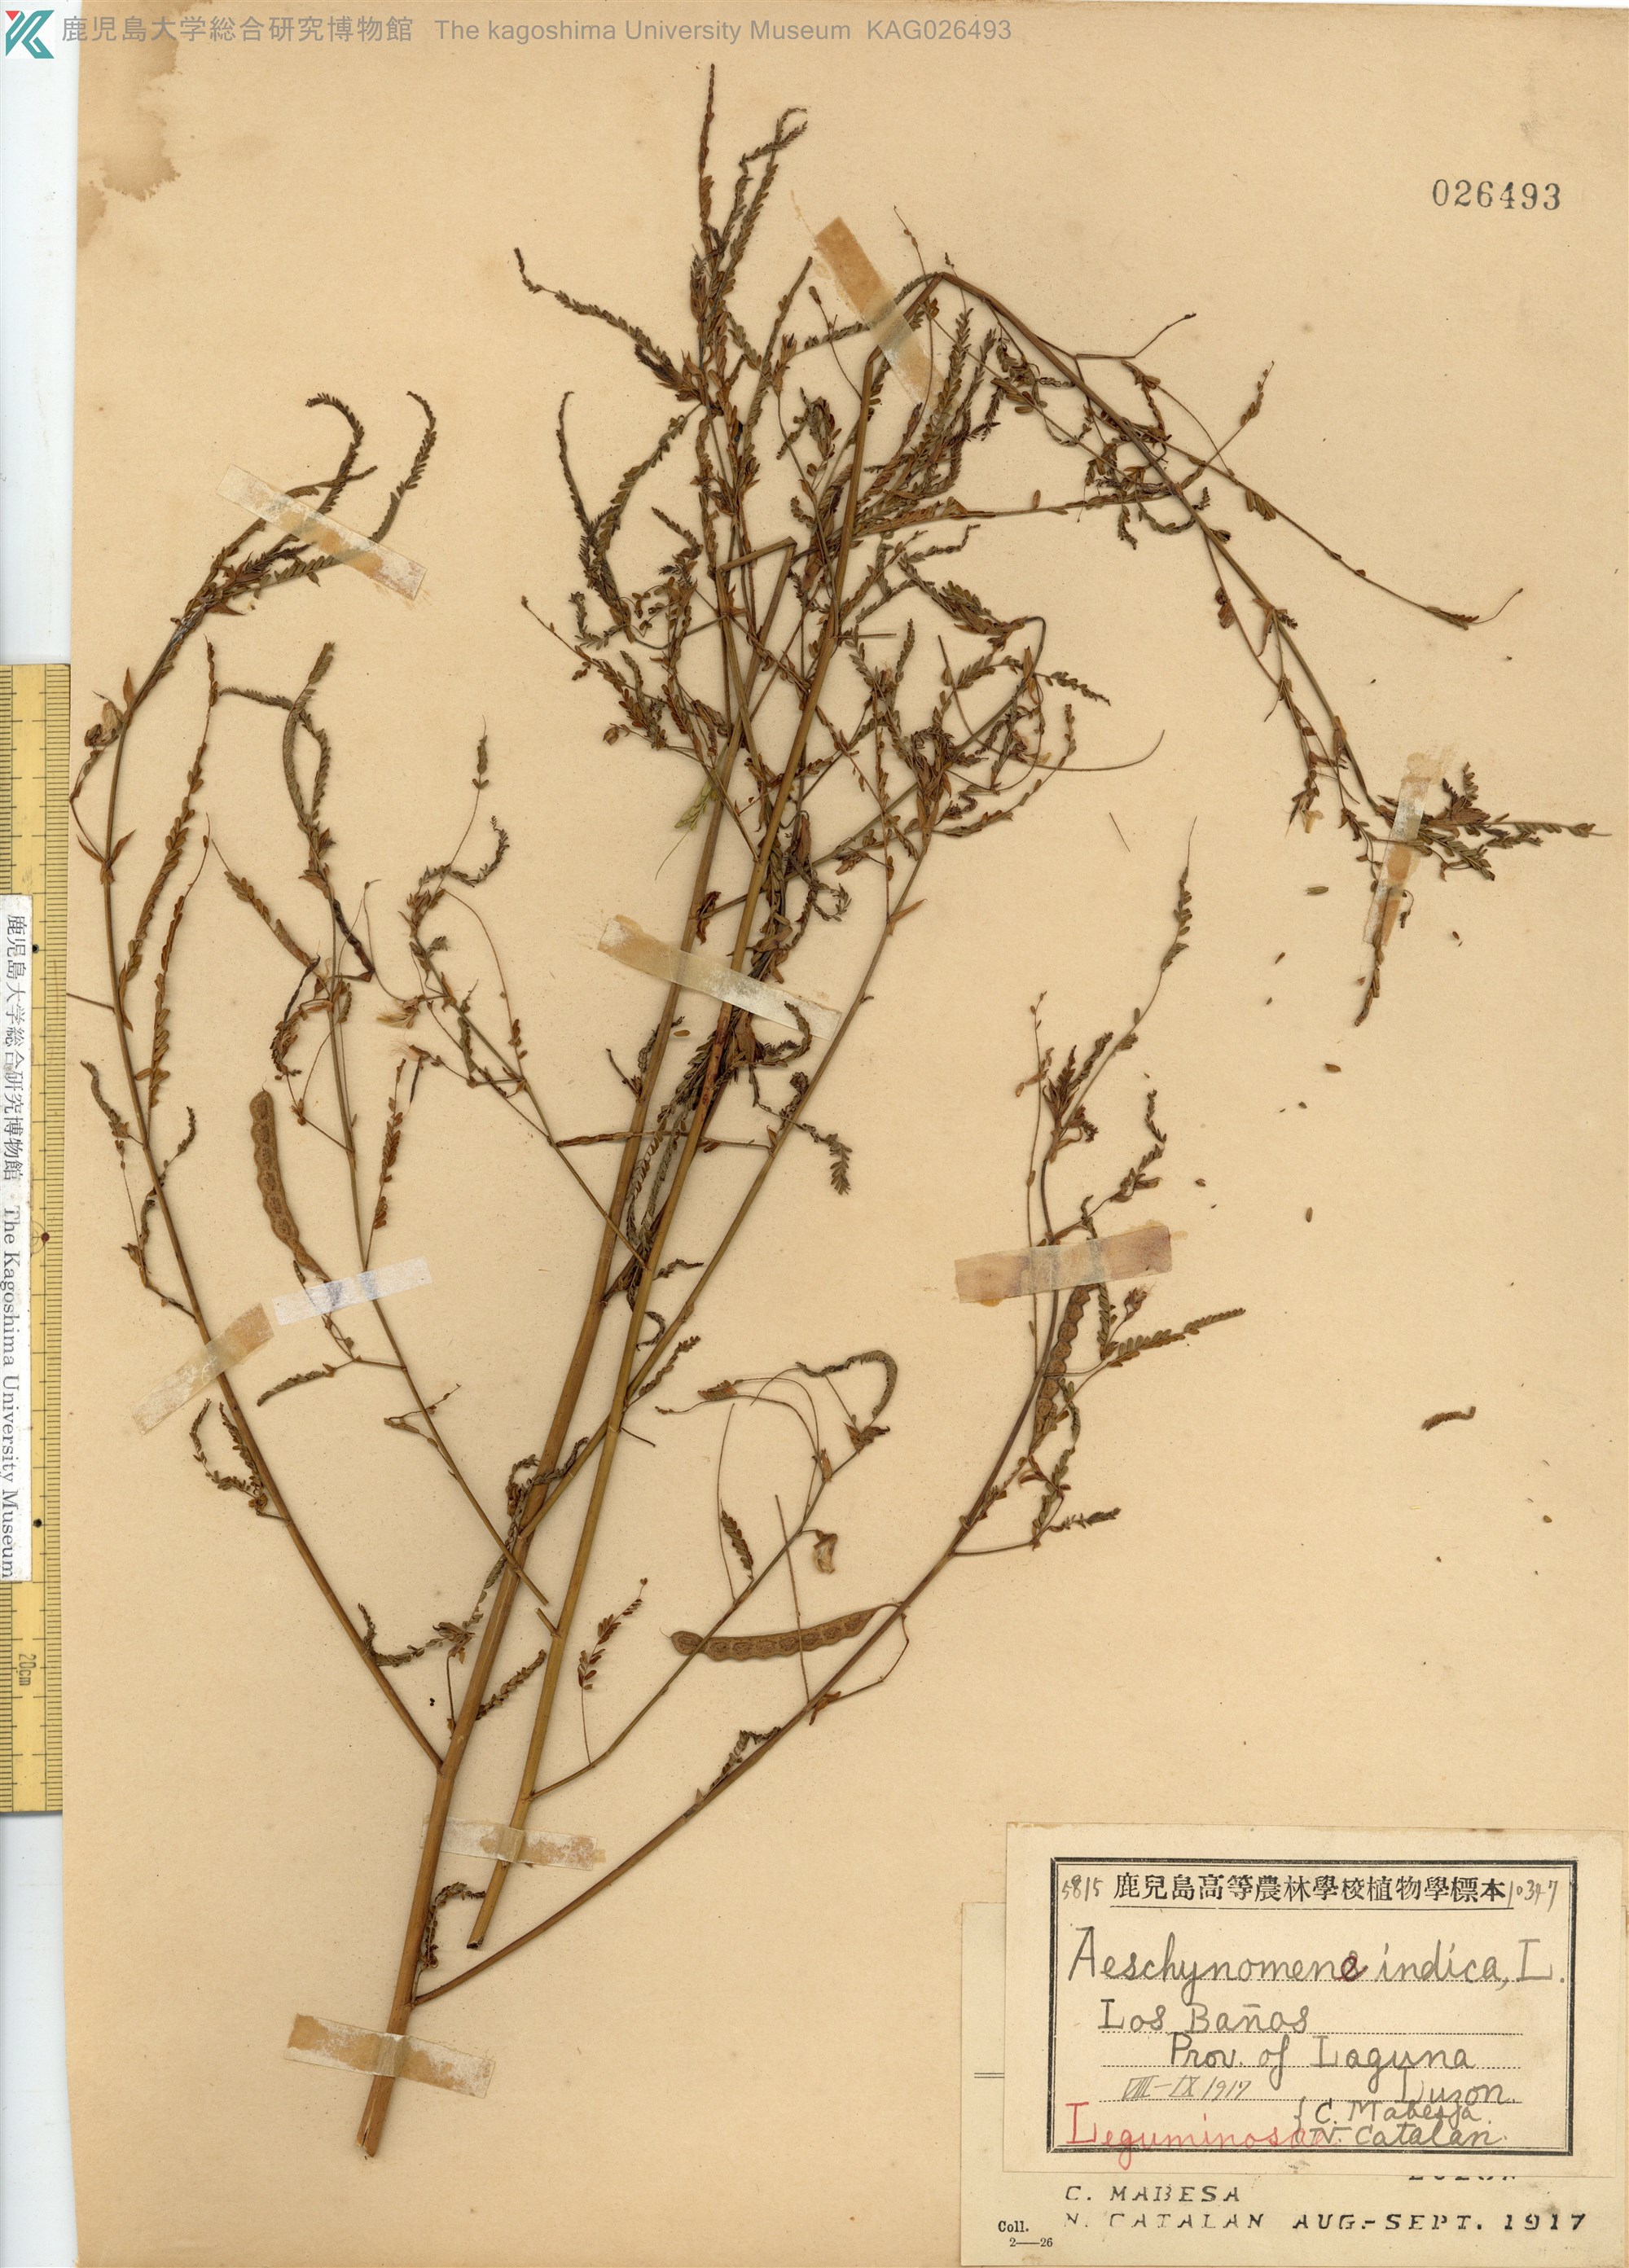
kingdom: Plantae
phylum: Tracheophyta
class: Magnoliopsida
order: Fabales
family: Fabaceae
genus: Aeschynomene
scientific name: Aeschynomene indica
